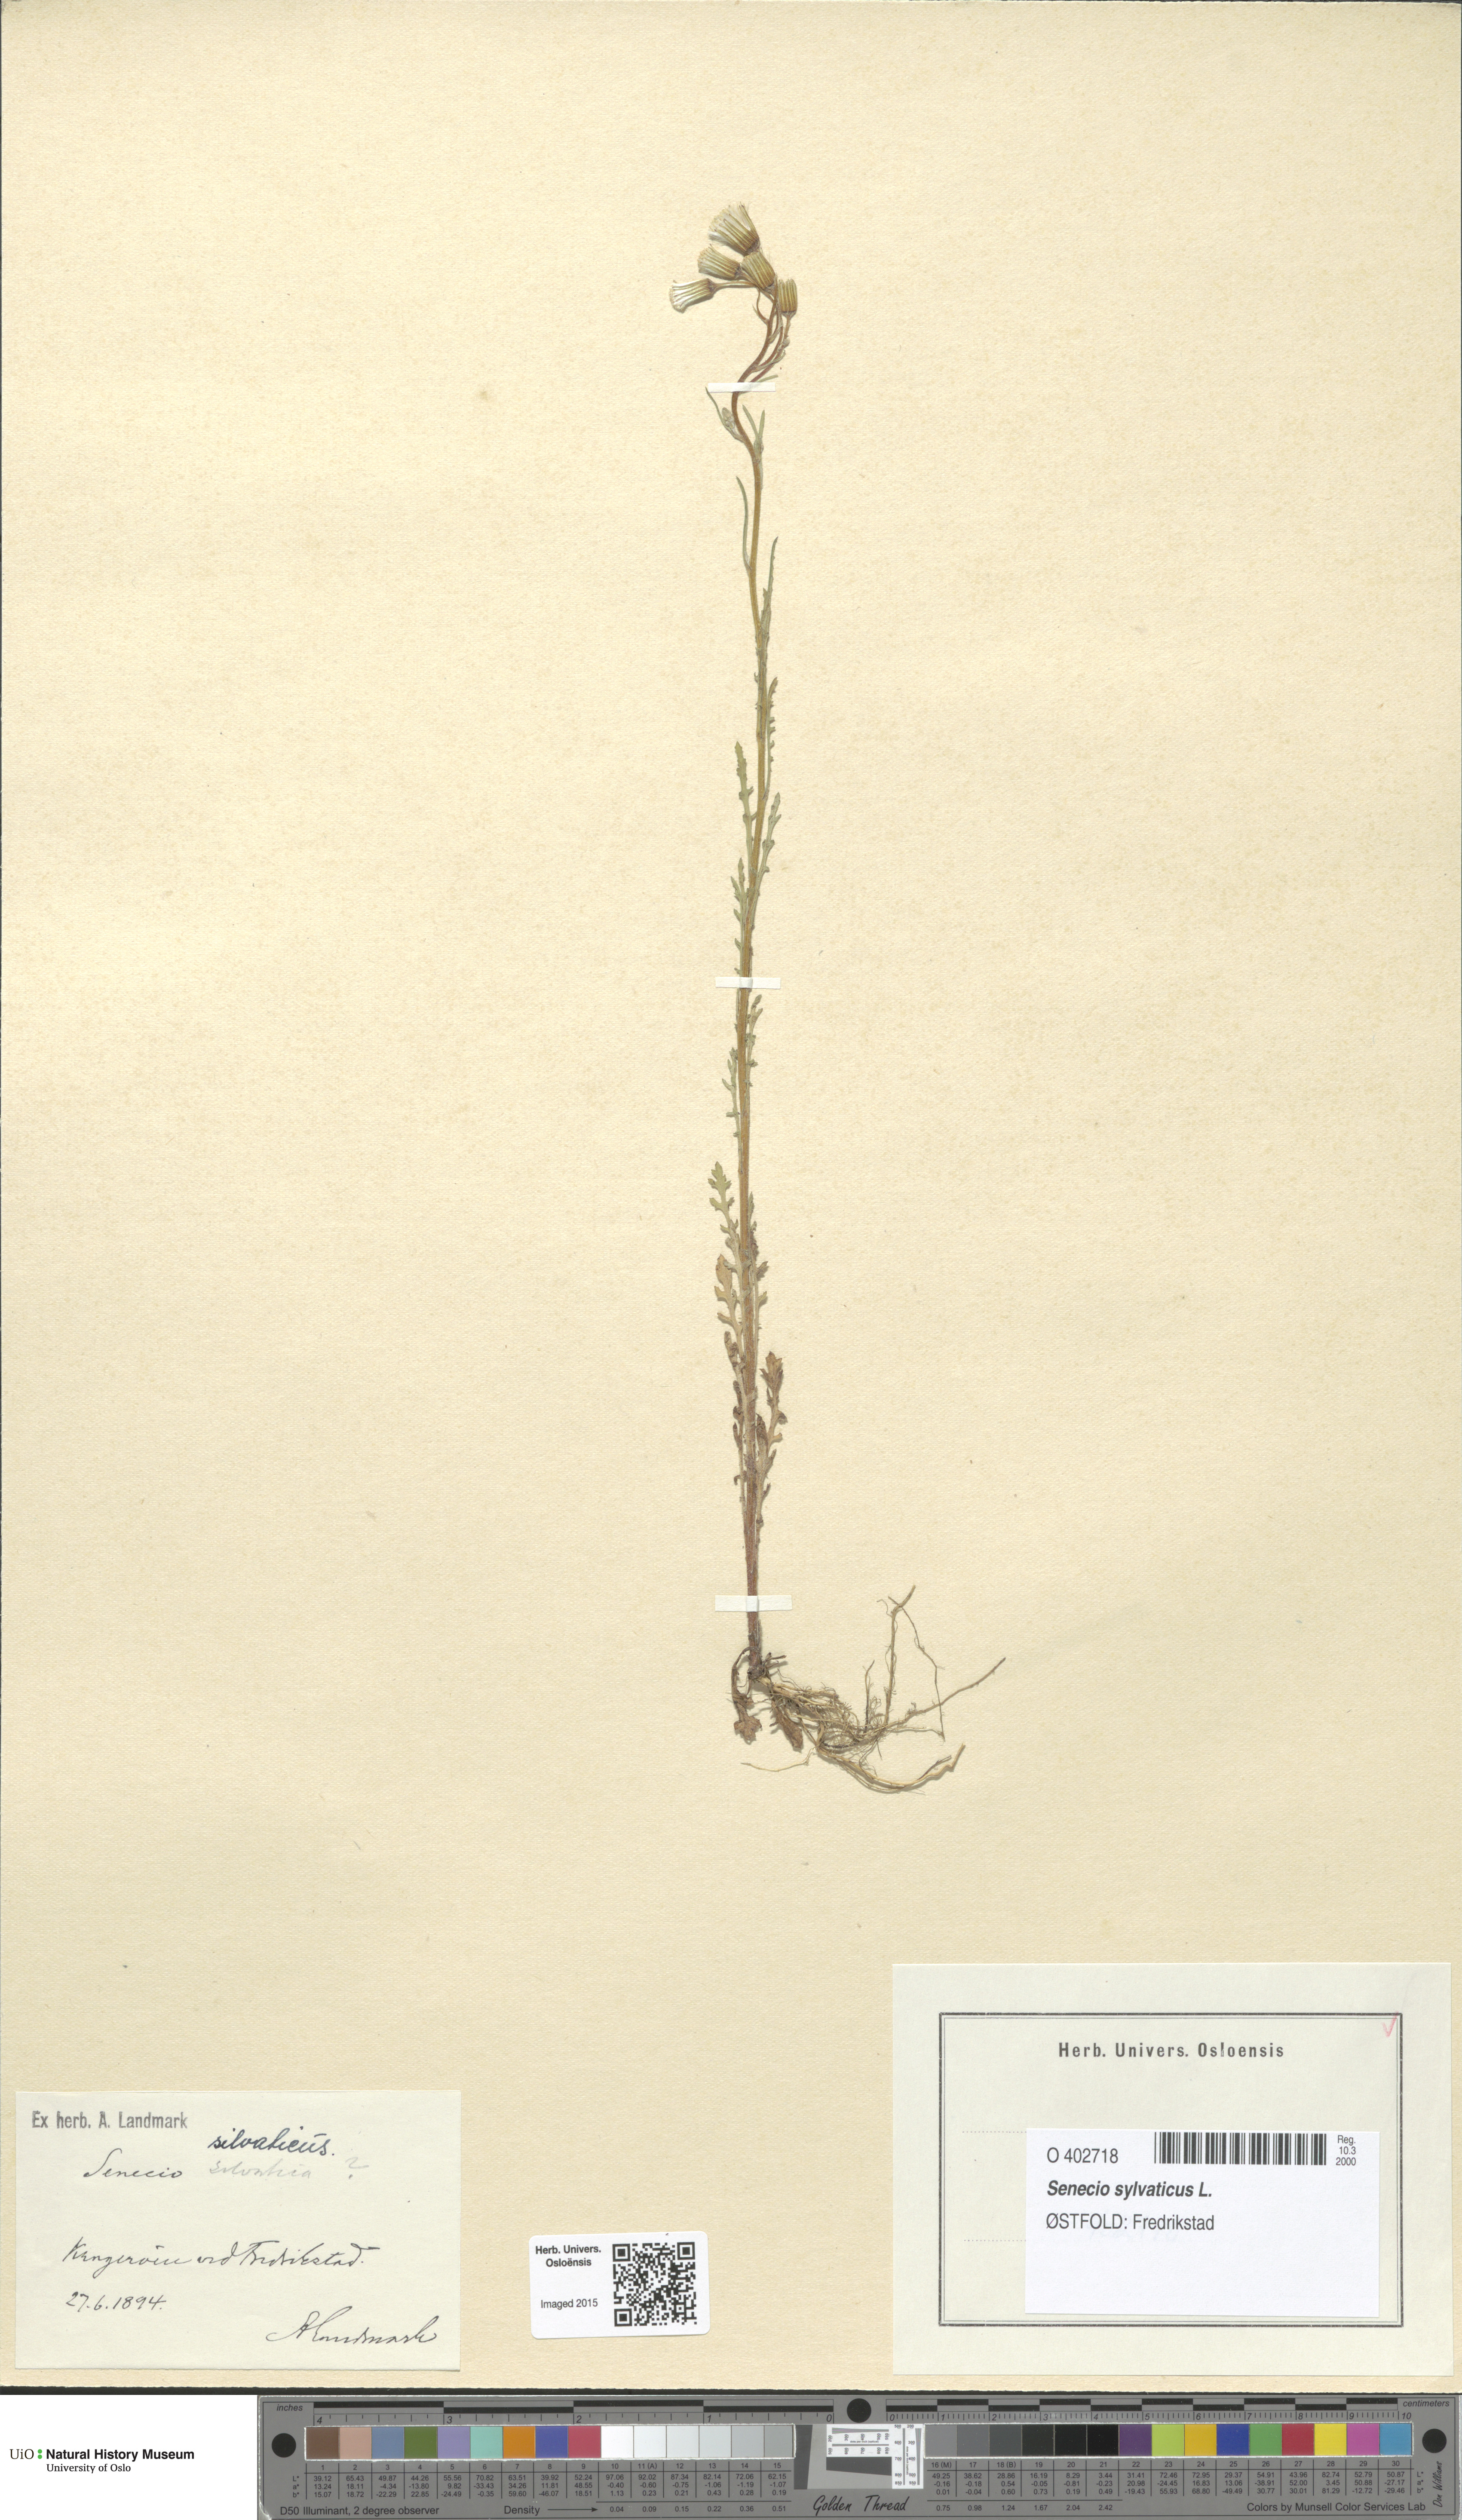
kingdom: Plantae
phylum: Tracheophyta
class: Magnoliopsida
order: Asterales
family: Asteraceae
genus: Senecio
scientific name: Senecio sylvaticus
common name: Woodland ragwort
